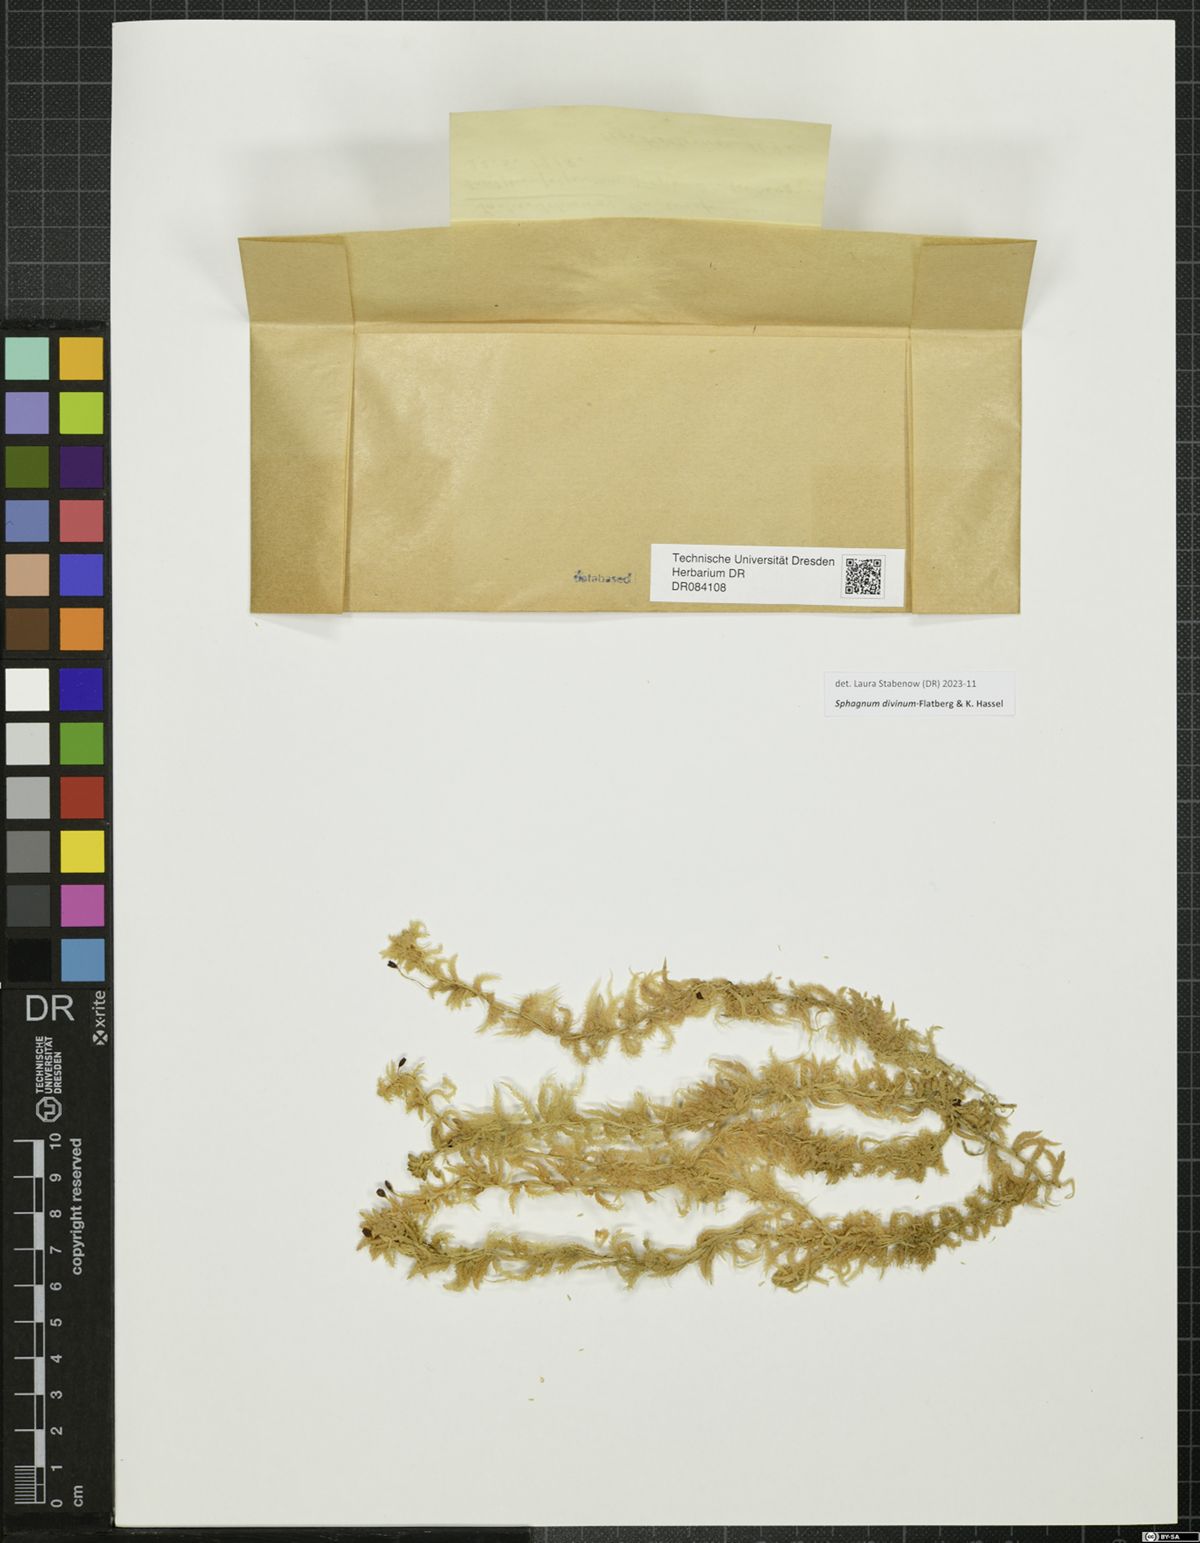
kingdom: Plantae
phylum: Bryophyta
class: Sphagnopsida
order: Sphagnales
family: Sphagnaceae
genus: Sphagnum
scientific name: Sphagnum divinum
